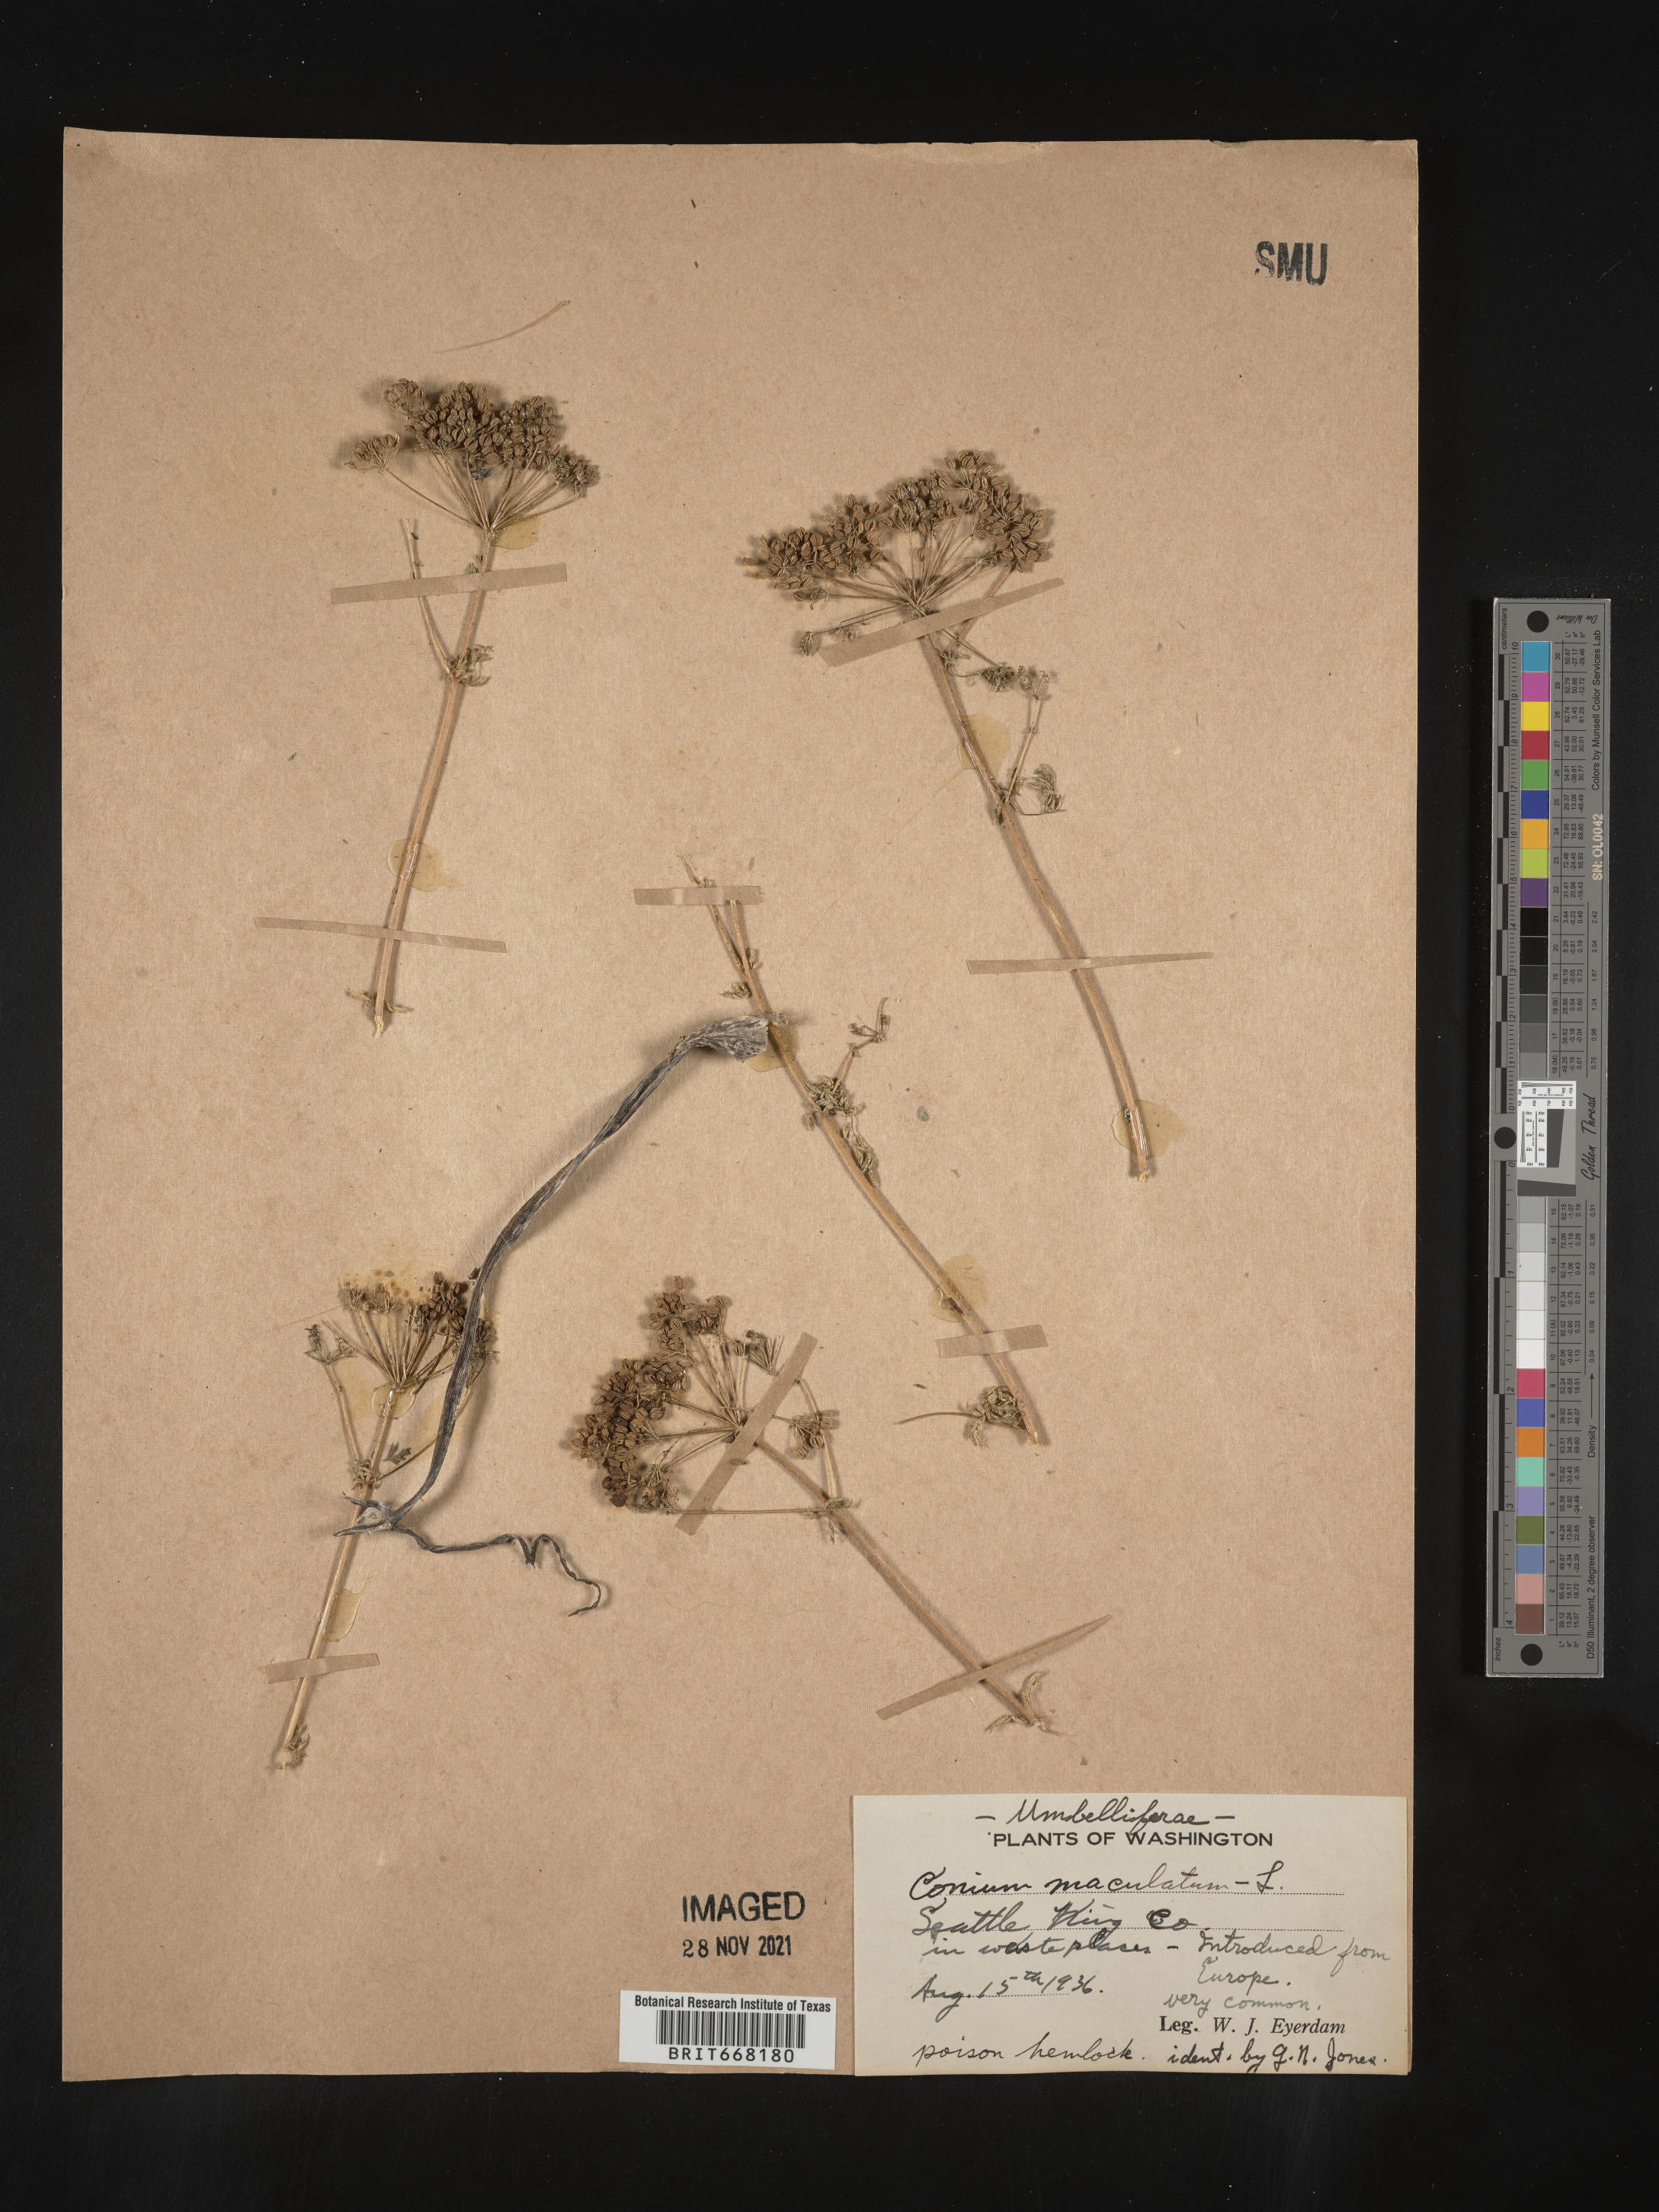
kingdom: Plantae
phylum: Tracheophyta
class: Magnoliopsida
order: Apiales
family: Apiaceae
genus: Conium
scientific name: Conium maculatum
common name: Hemlock
